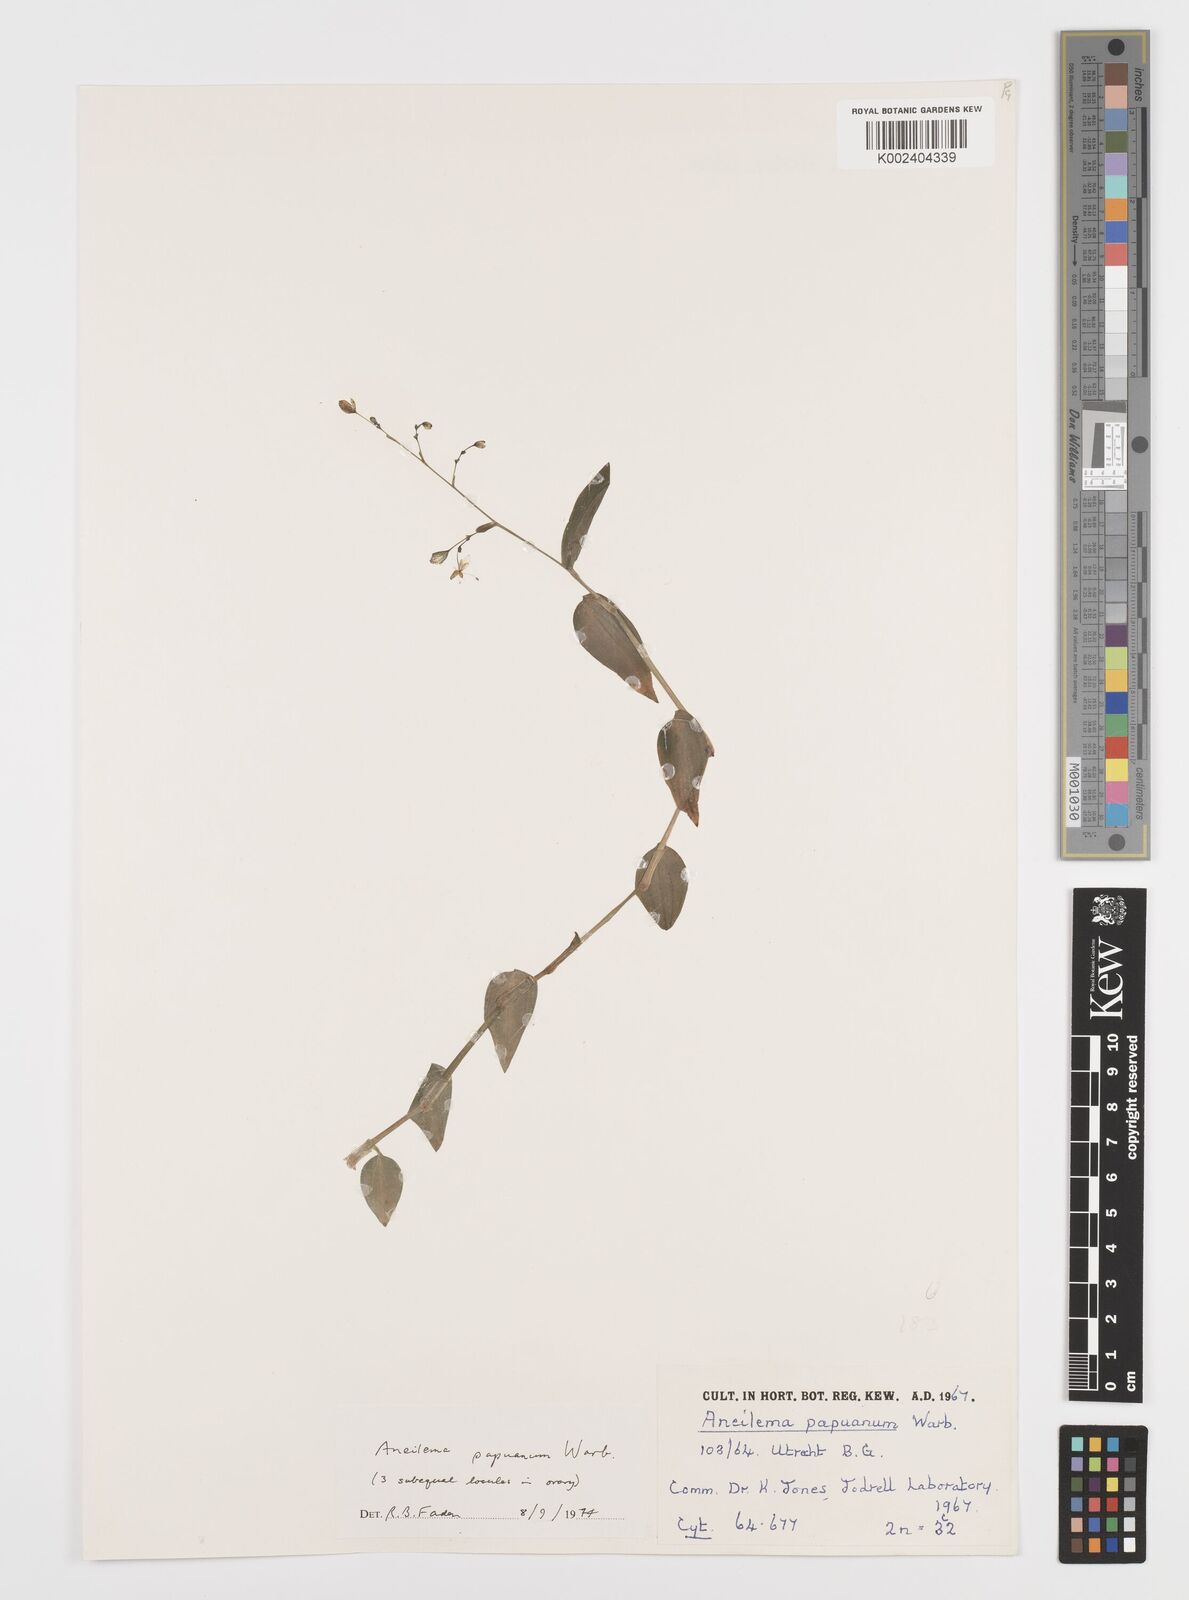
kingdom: Plantae
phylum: Tracheophyta
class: Liliopsida
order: Commelinales
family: Commelinaceae
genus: Aneilema
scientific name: Aneilema acuminatum
